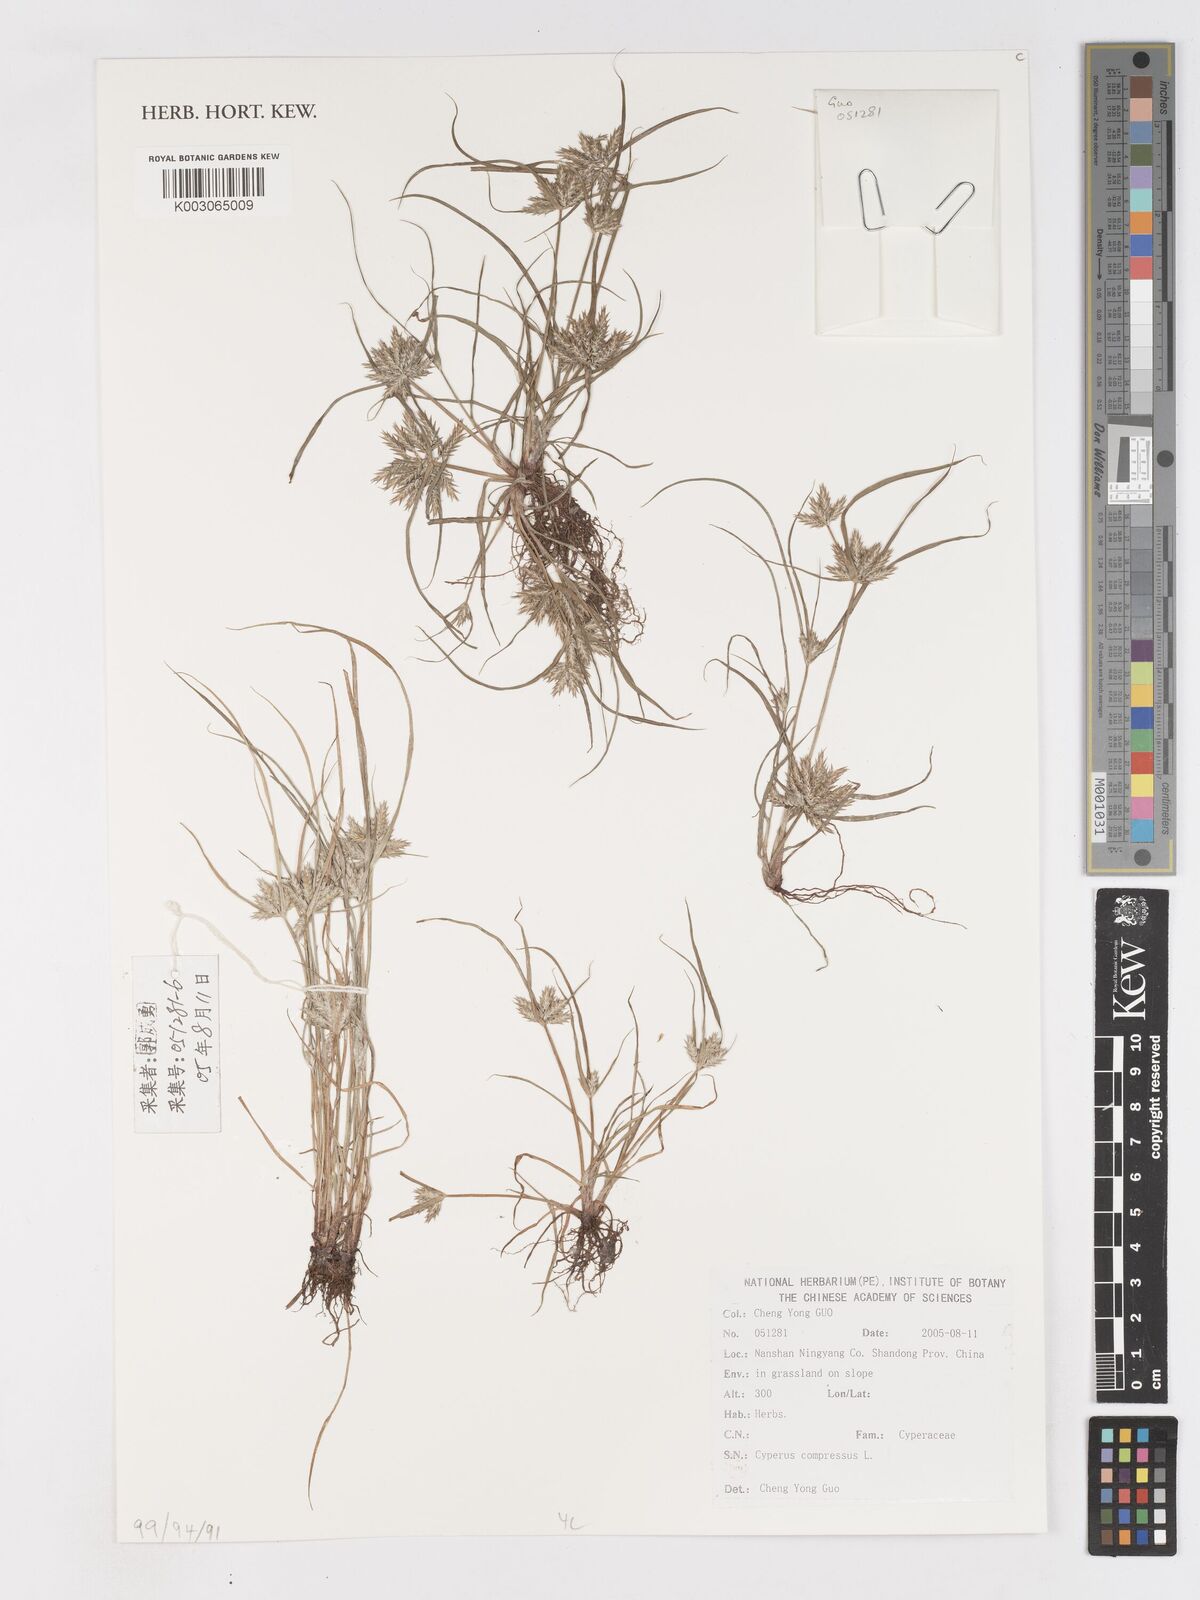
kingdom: Plantae
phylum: Tracheophyta
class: Liliopsida
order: Poales
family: Cyperaceae
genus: Cyperus
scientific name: Cyperus compressus
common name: Poorland flatsedge
